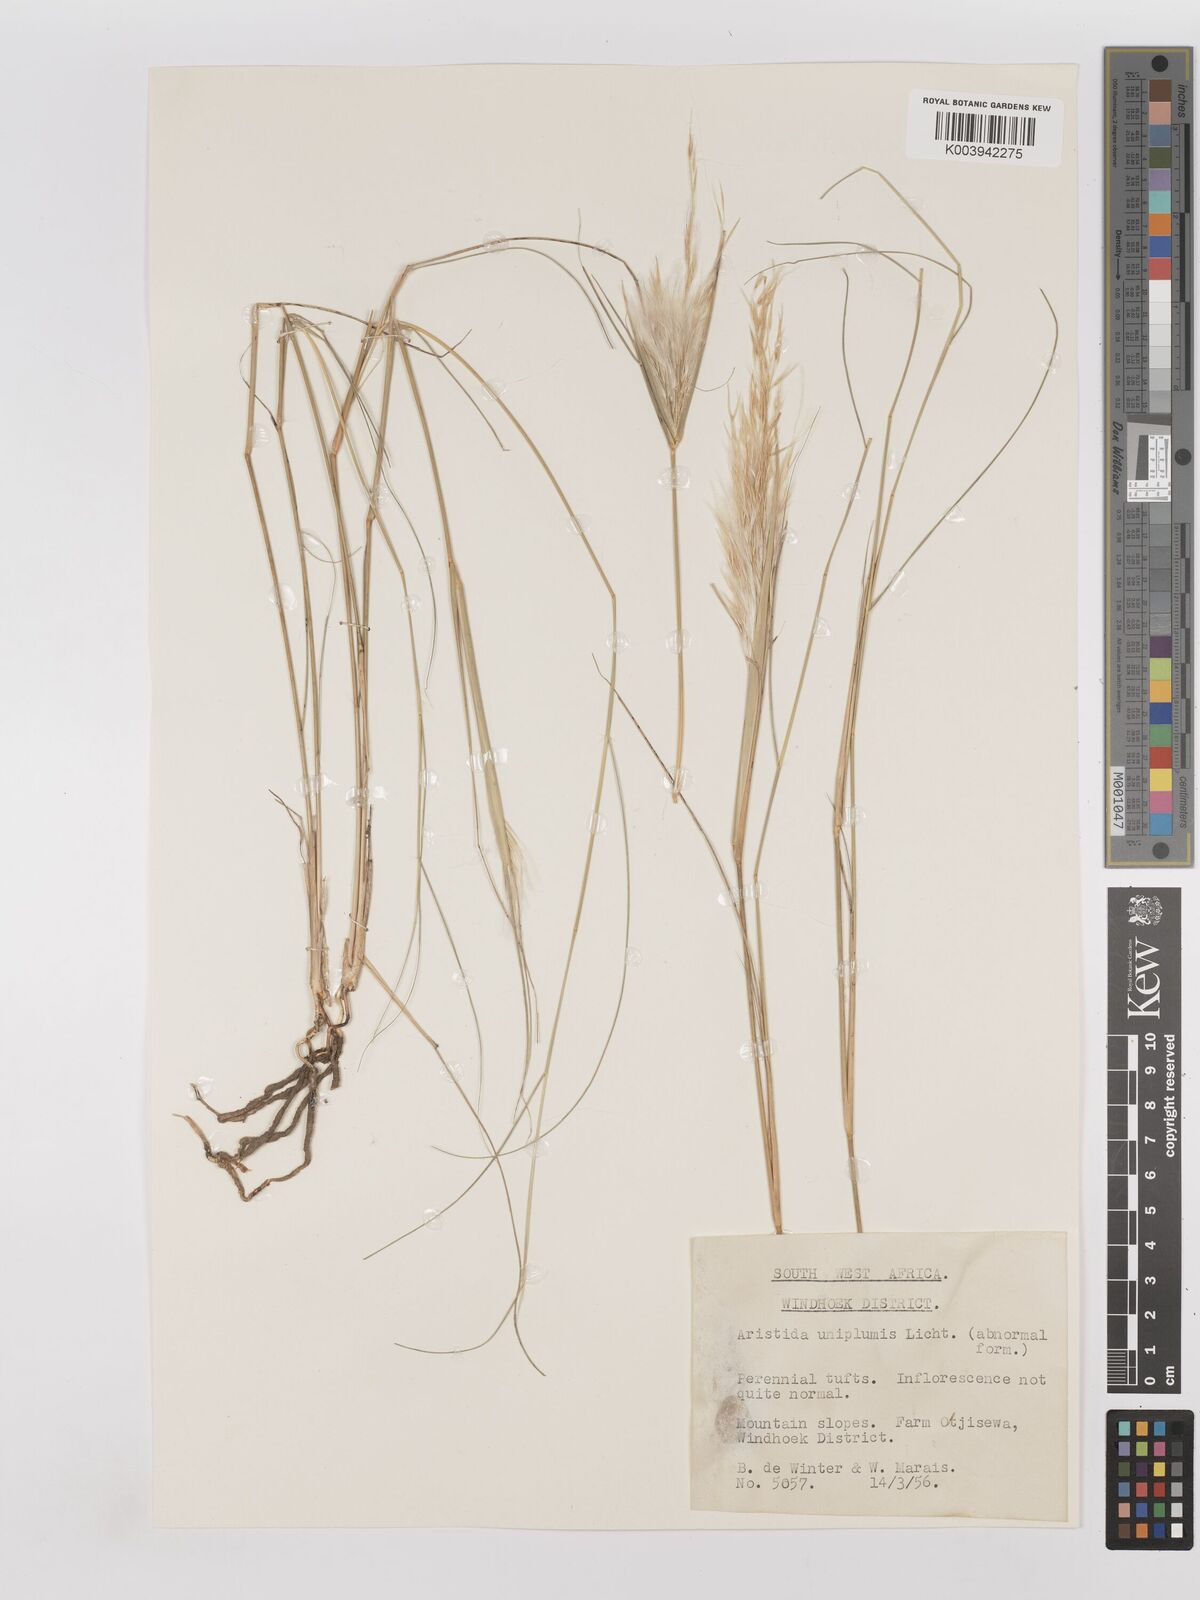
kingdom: Plantae
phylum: Tracheophyta
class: Liliopsida
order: Poales
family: Poaceae
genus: Stipagrostis
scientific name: Stipagrostis uniplumis
